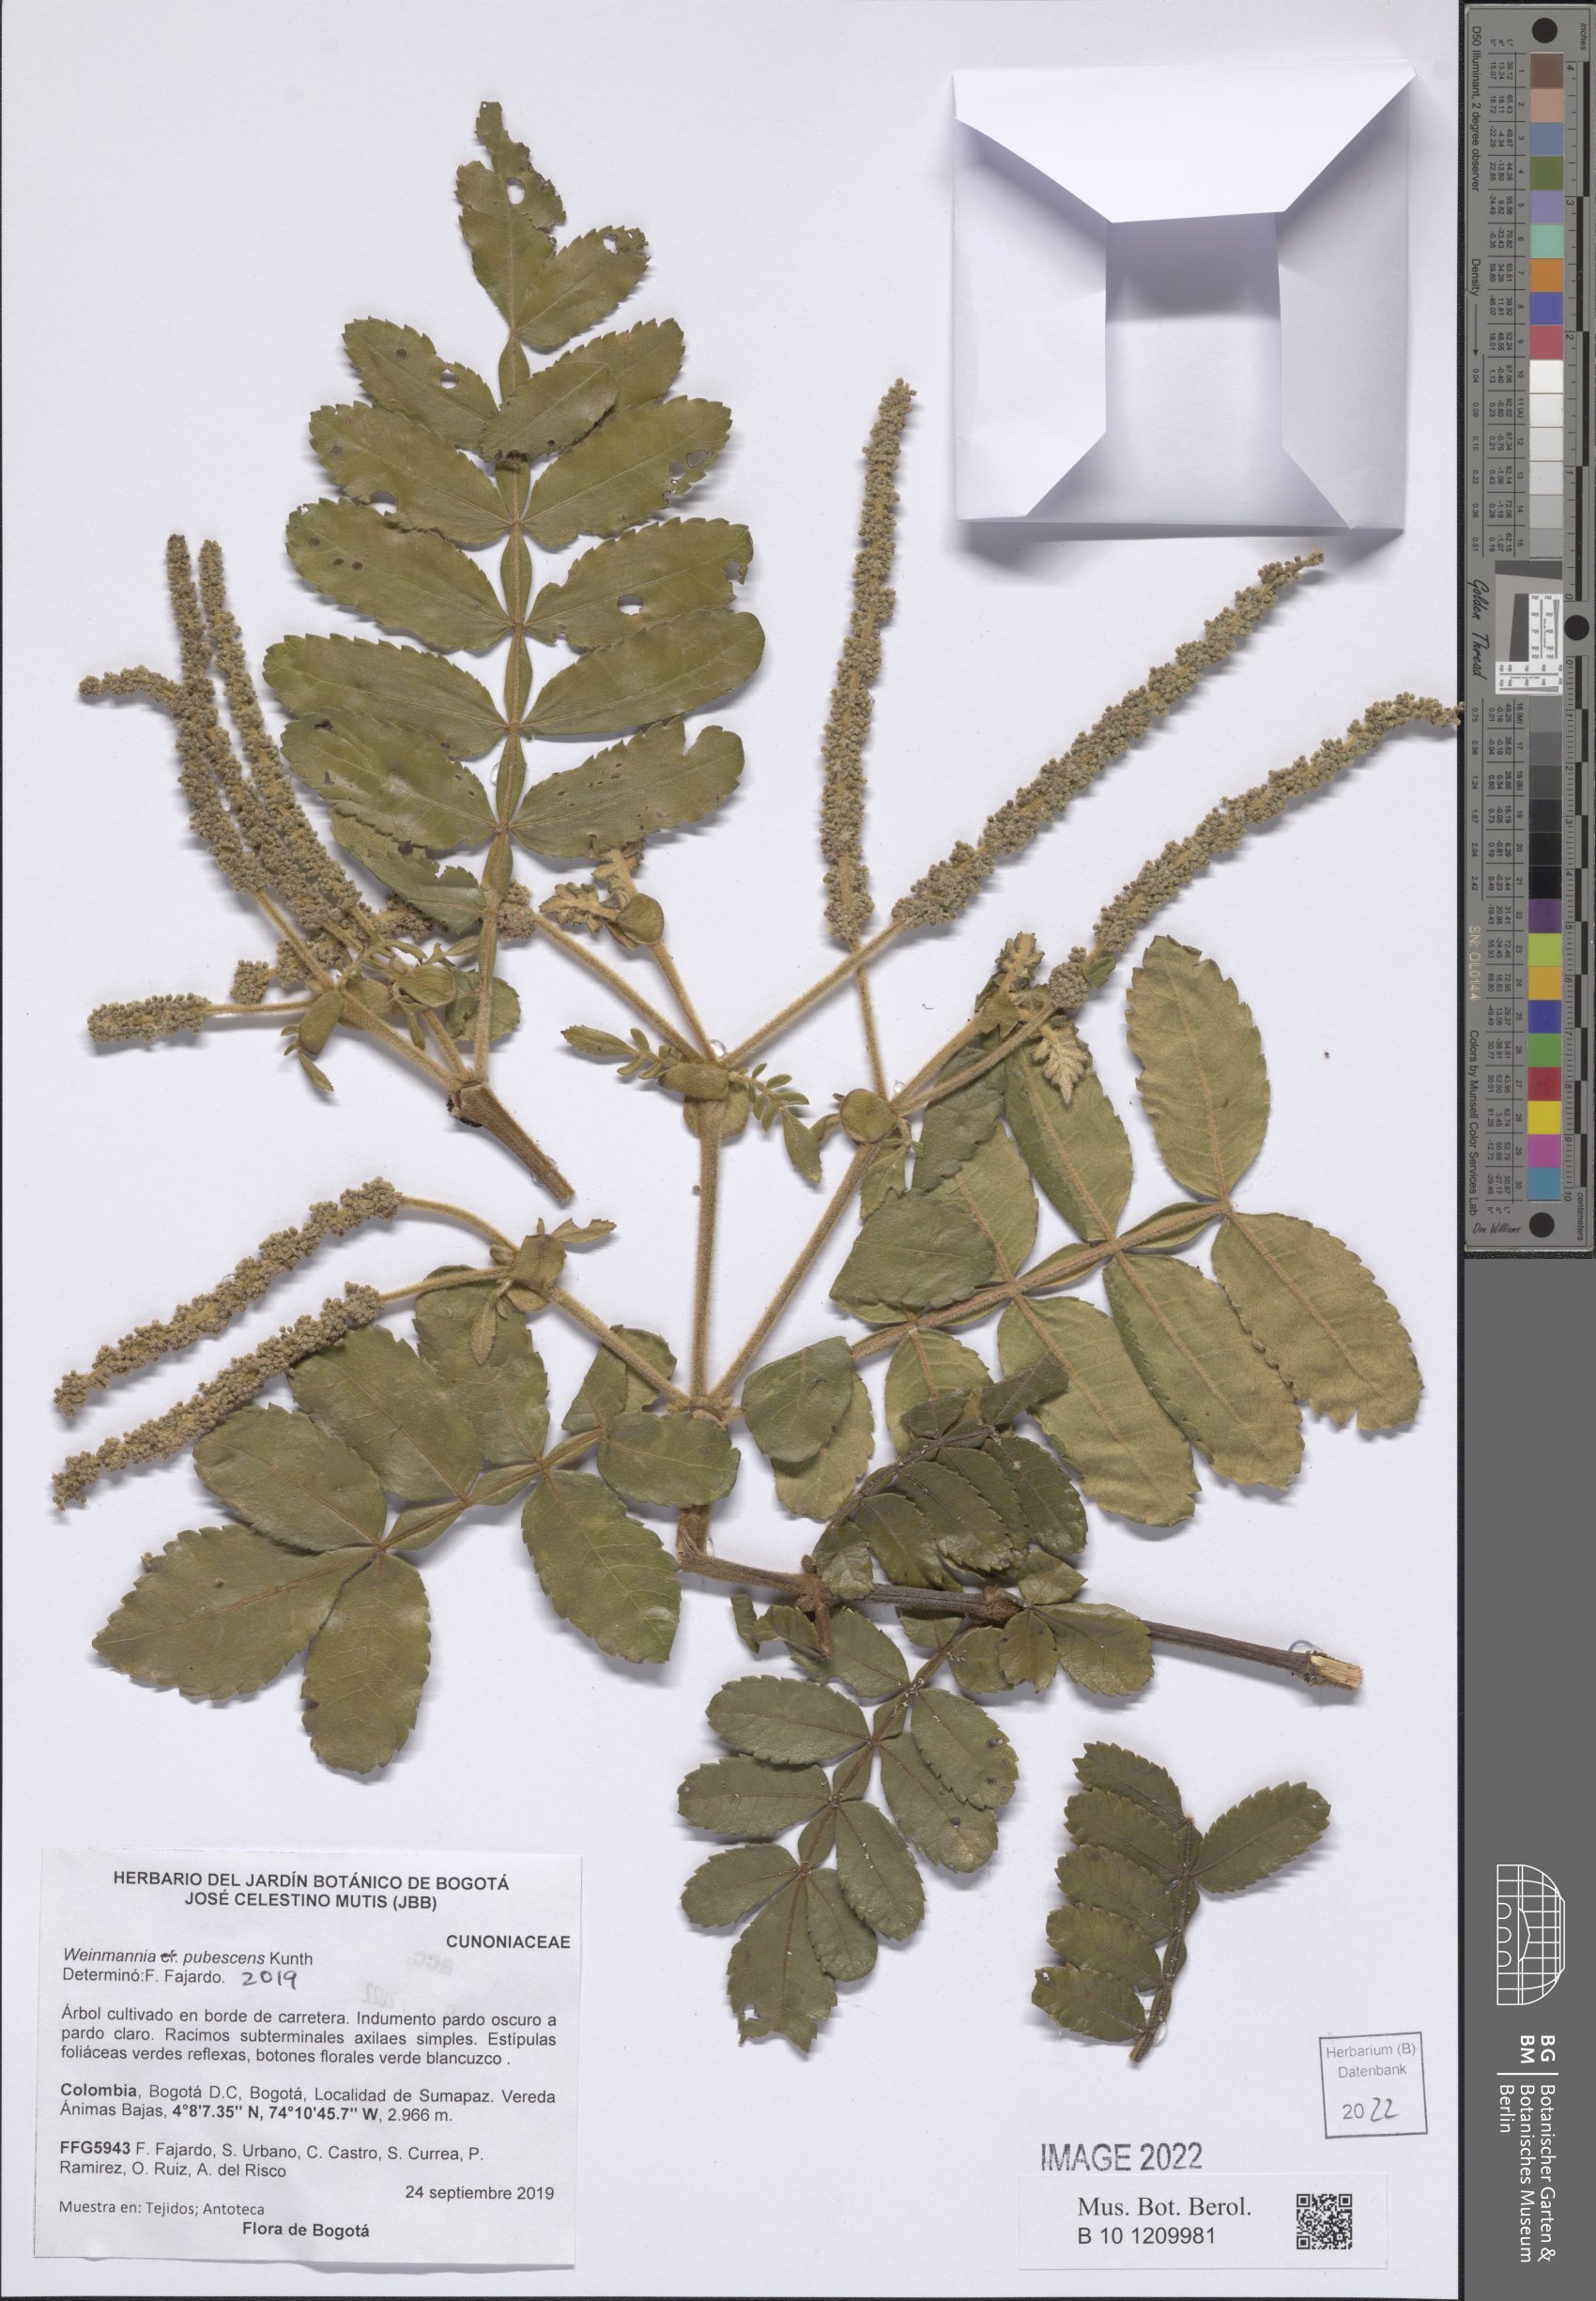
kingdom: Plantae
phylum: Tracheophyta
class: Magnoliopsida
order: Oxalidales
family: Cunoniaceae
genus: Weinmannia
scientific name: Weinmannia pubescens
